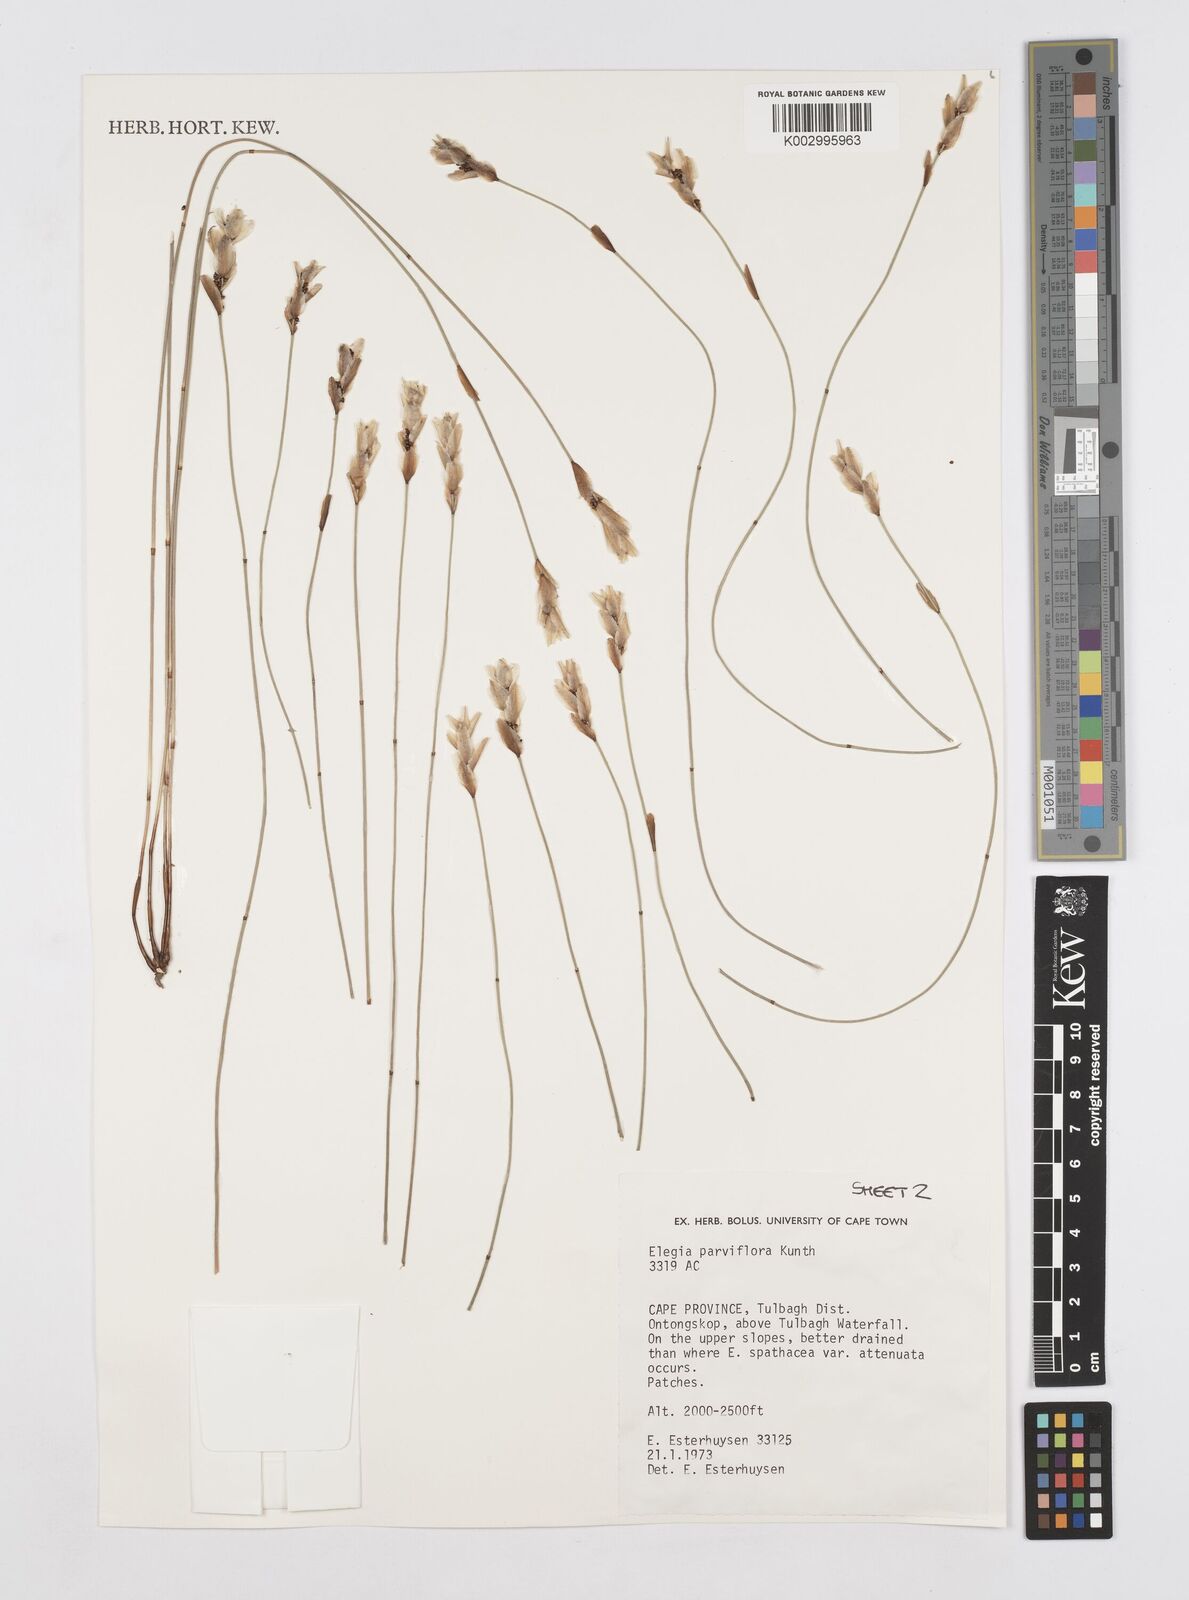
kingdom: Plantae
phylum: Tracheophyta
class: Liliopsida
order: Poales
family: Restionaceae
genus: Cannomois
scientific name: Cannomois parviflora
